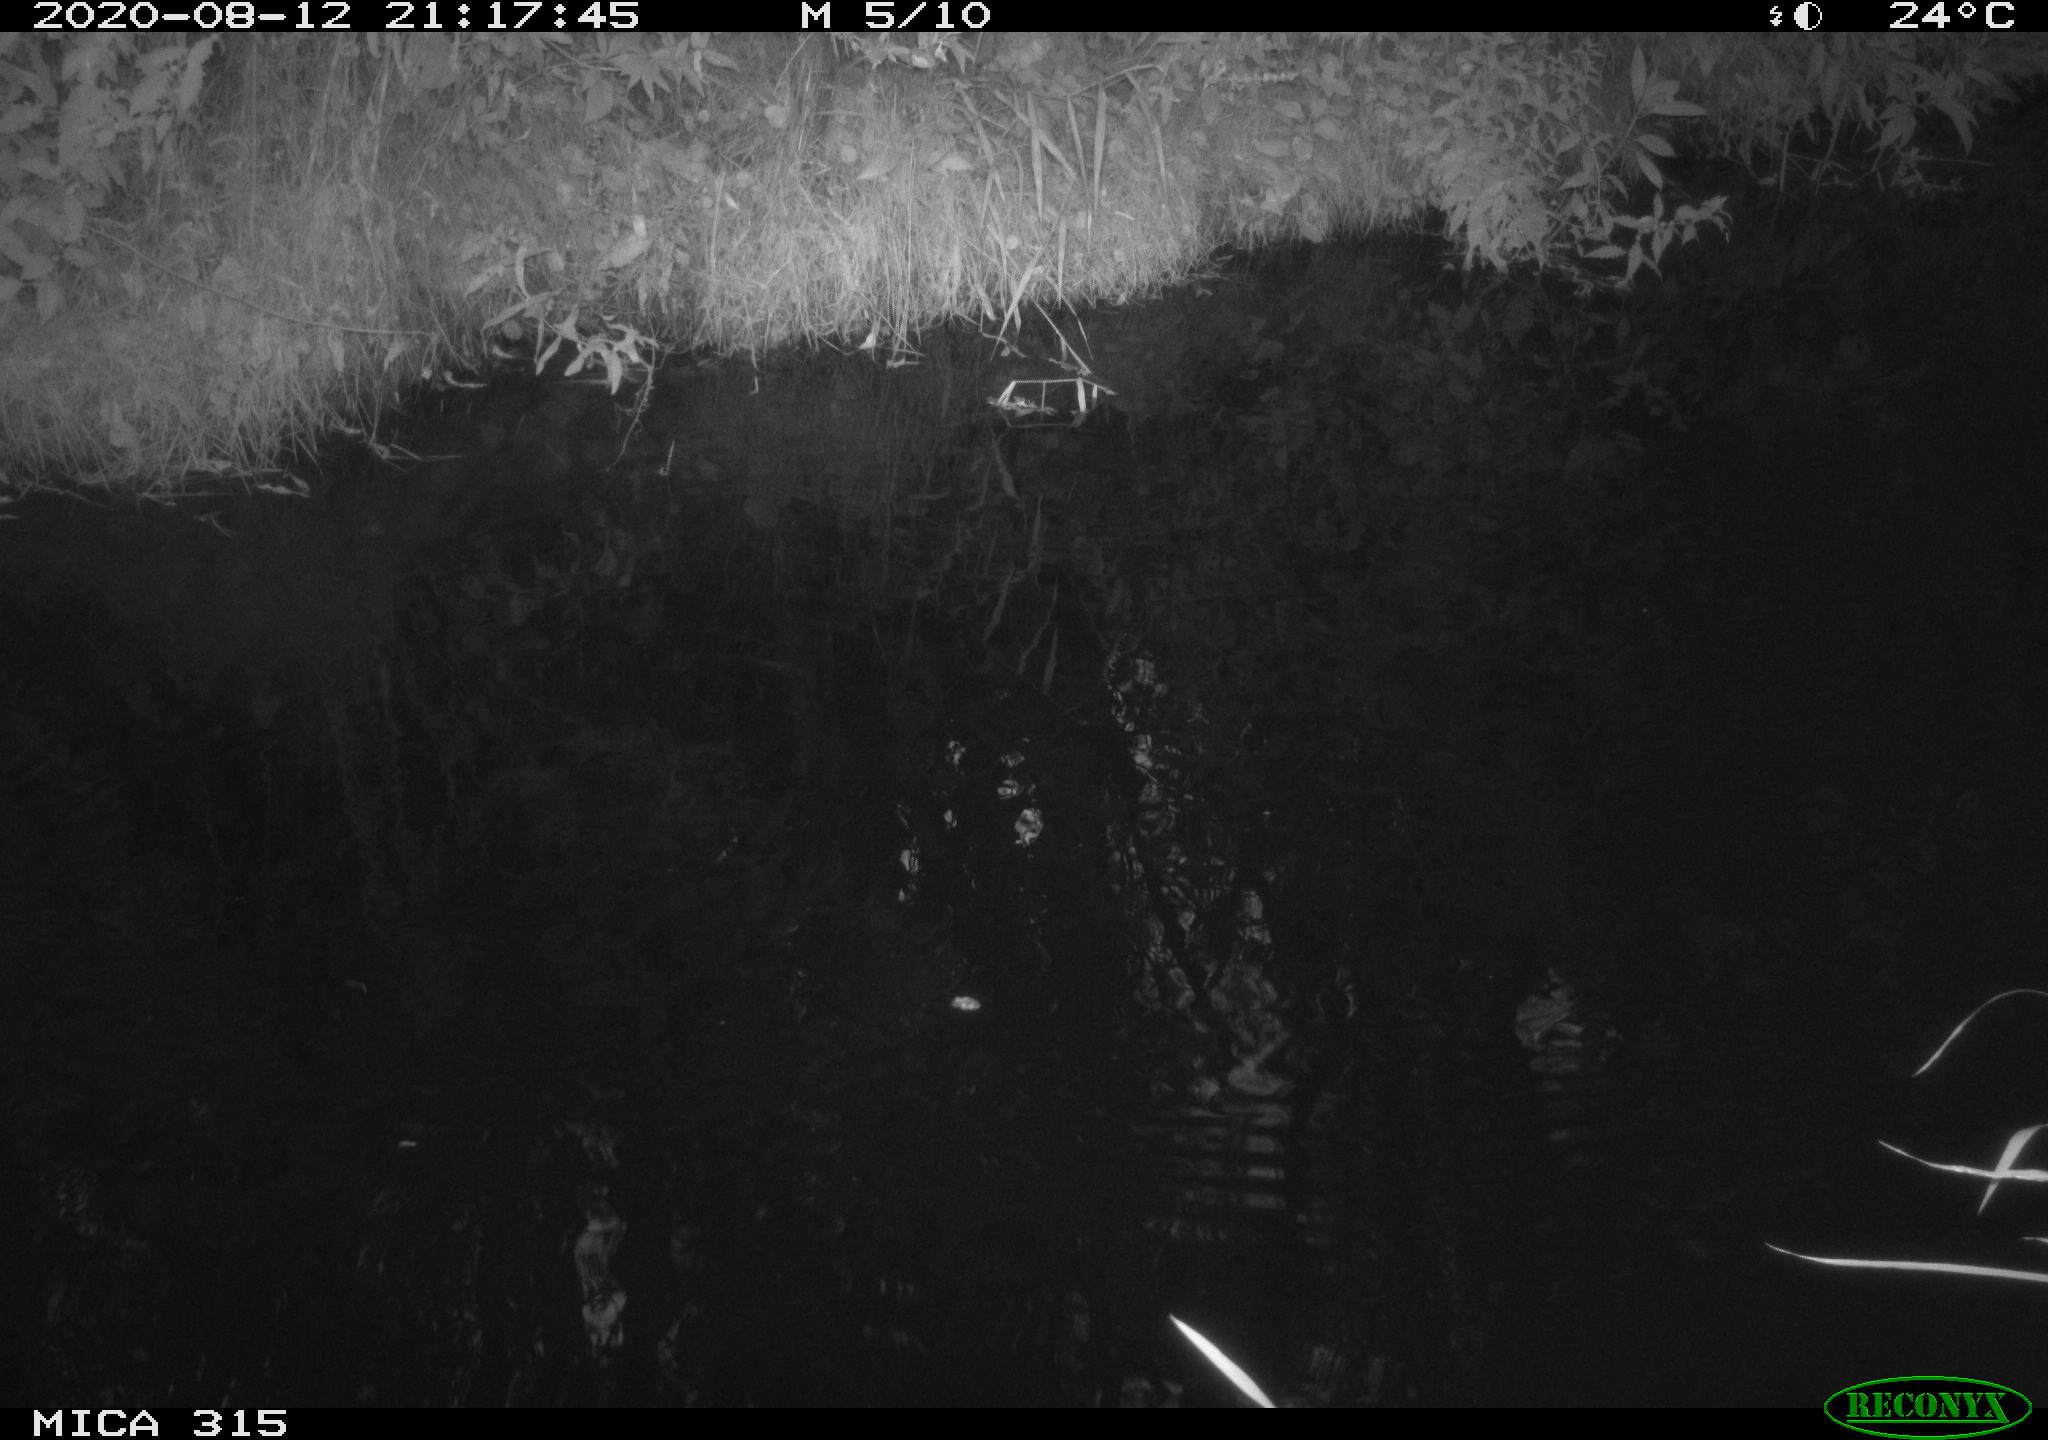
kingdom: Animalia
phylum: Chordata
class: Aves
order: Anseriformes
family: Anatidae
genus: Anas
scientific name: Anas platyrhynchos
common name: Mallard
